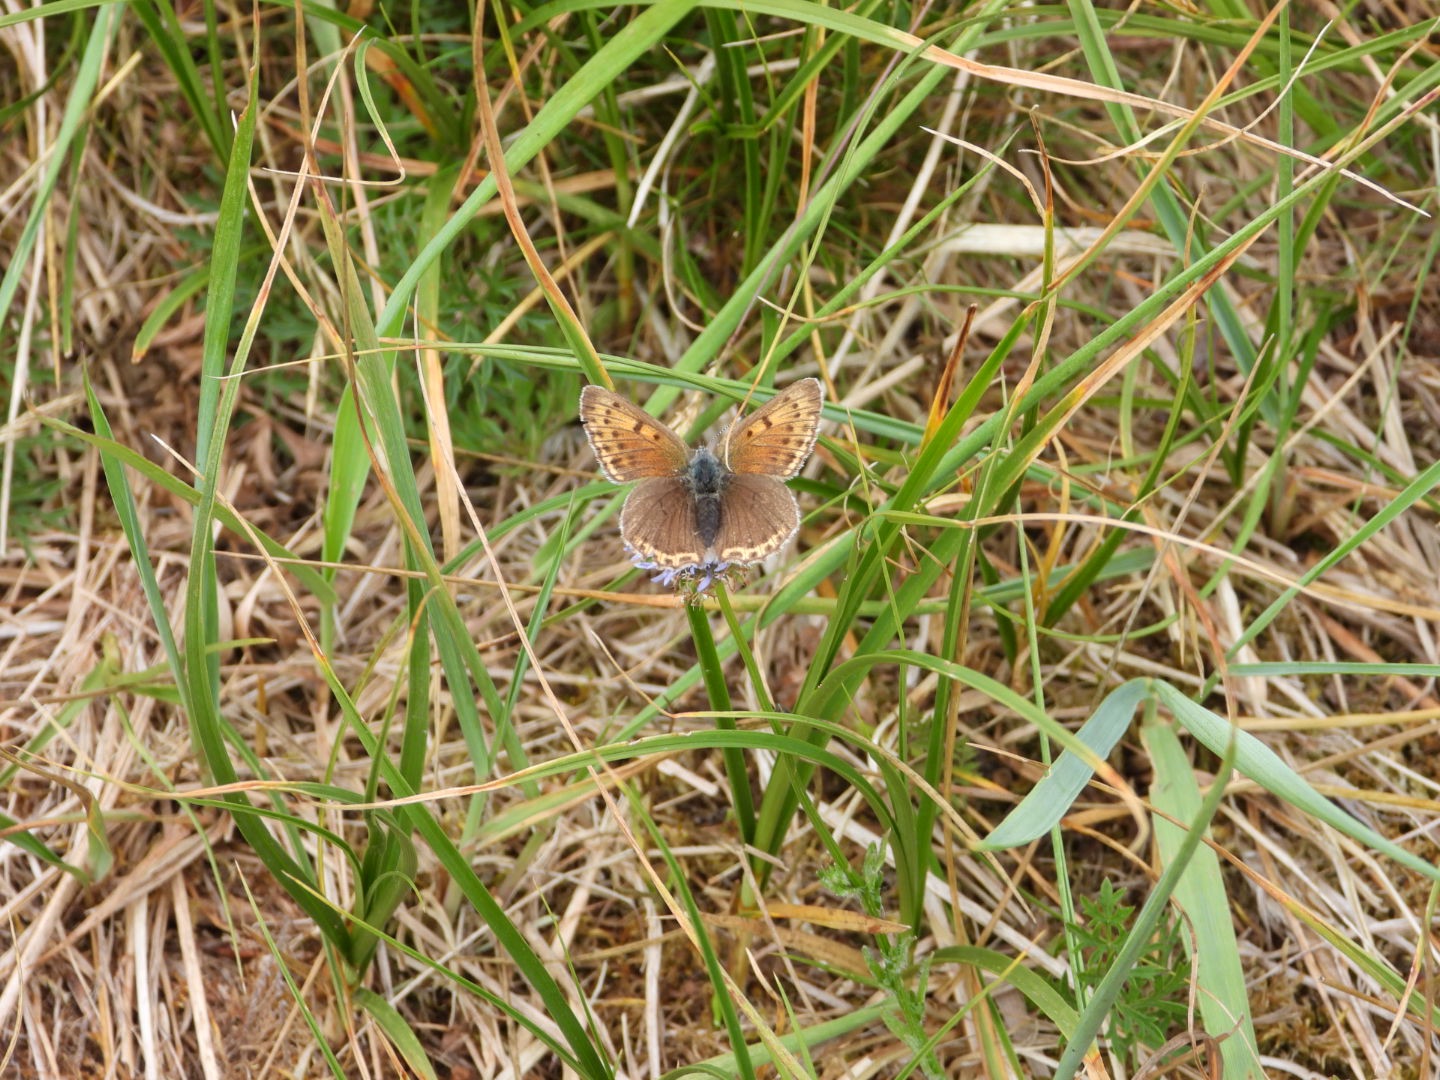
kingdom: Animalia
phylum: Arthropoda
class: Insecta
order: Lepidoptera
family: Lycaenidae
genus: Palaeochrysophanus
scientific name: Palaeochrysophanus hippothoe
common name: Violetrandet ildfugl
